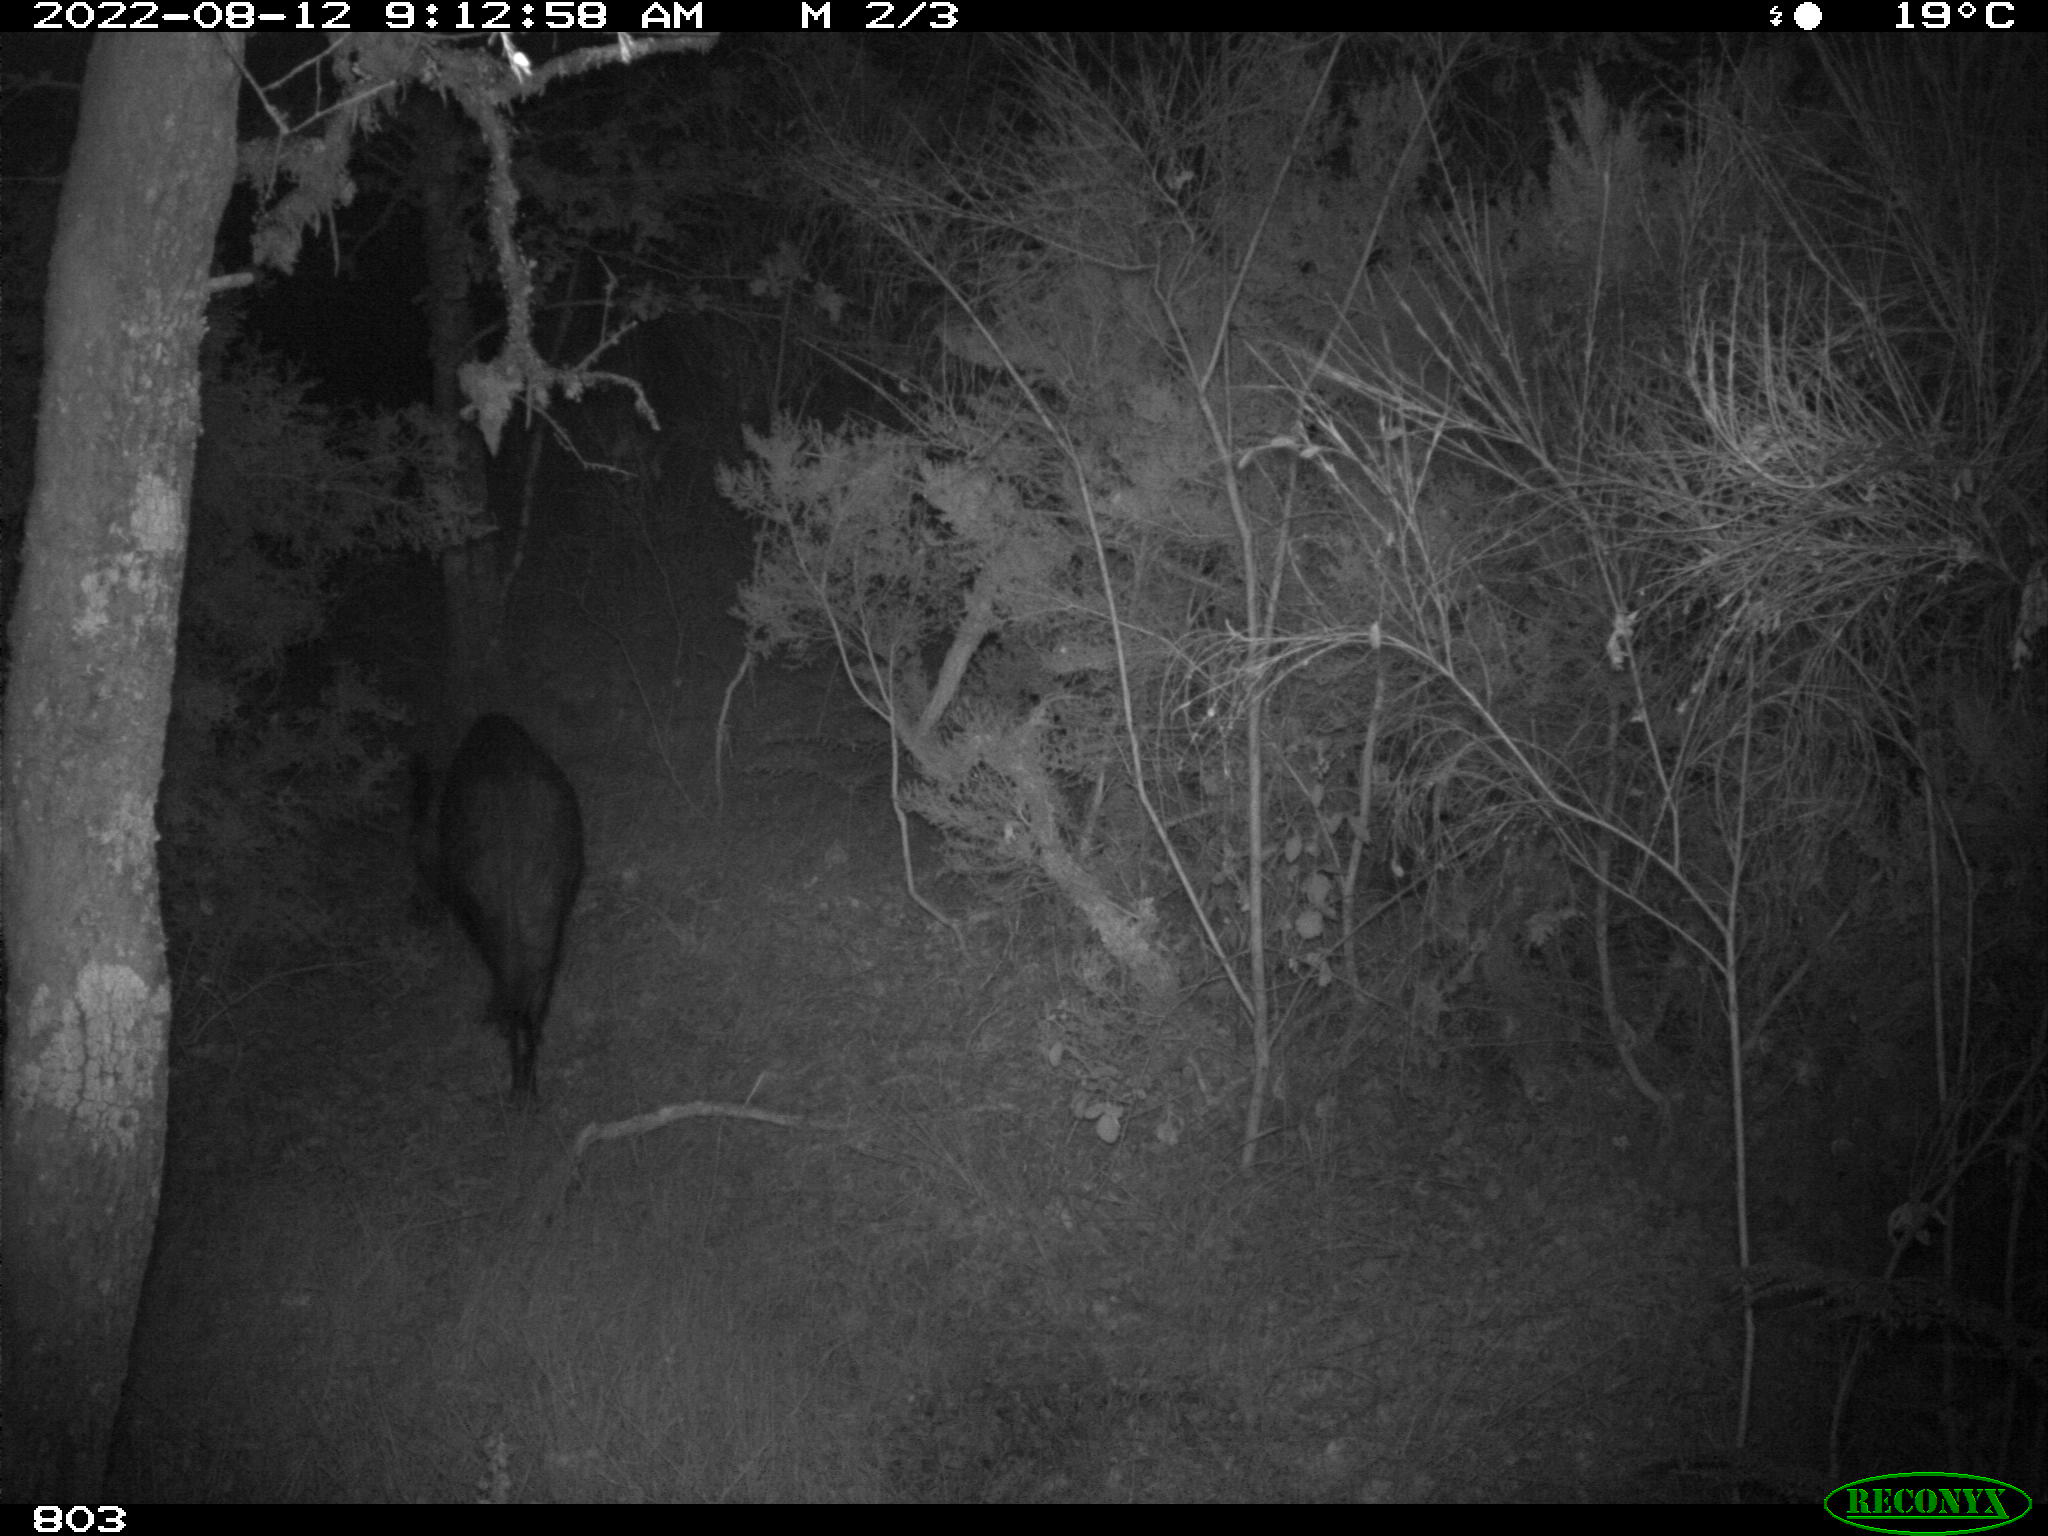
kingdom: Animalia
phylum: Chordata
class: Mammalia
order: Artiodactyla
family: Suidae
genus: Sus
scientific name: Sus scrofa
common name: Wild boar
